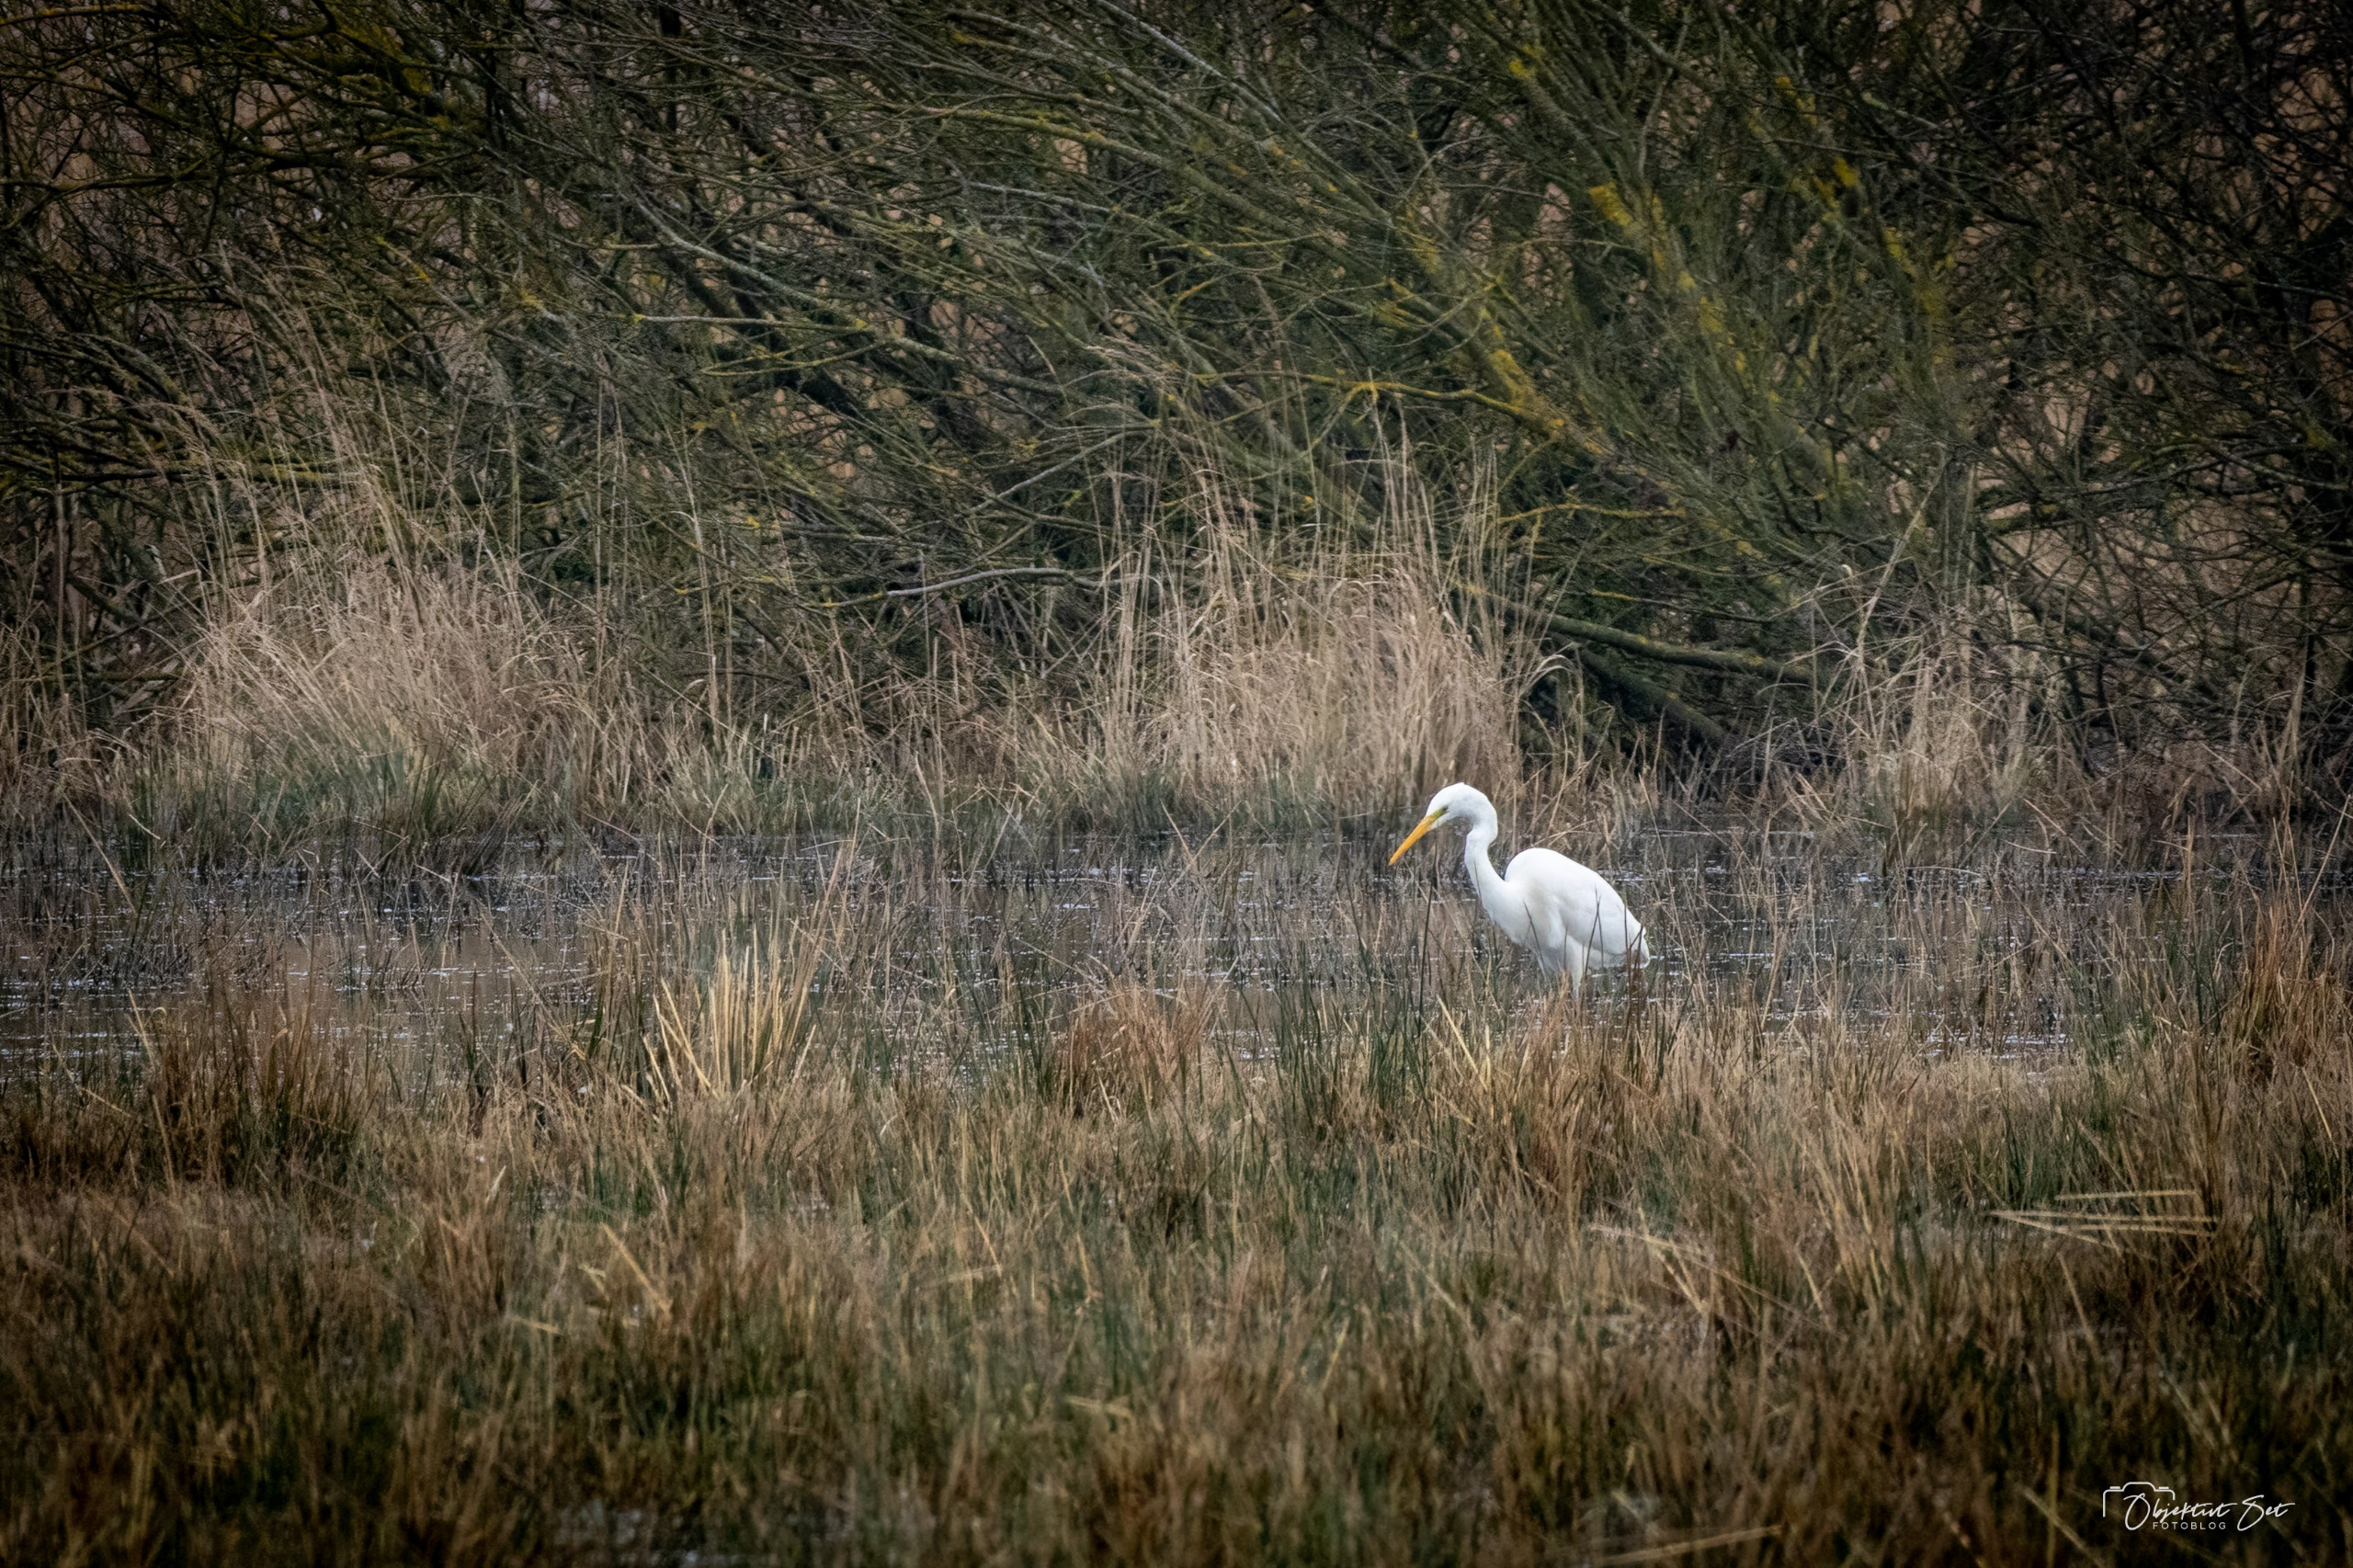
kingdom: Animalia
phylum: Chordata
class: Aves
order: Pelecaniformes
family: Ardeidae
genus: Ardea
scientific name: Ardea alba
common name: Sølvhejre
